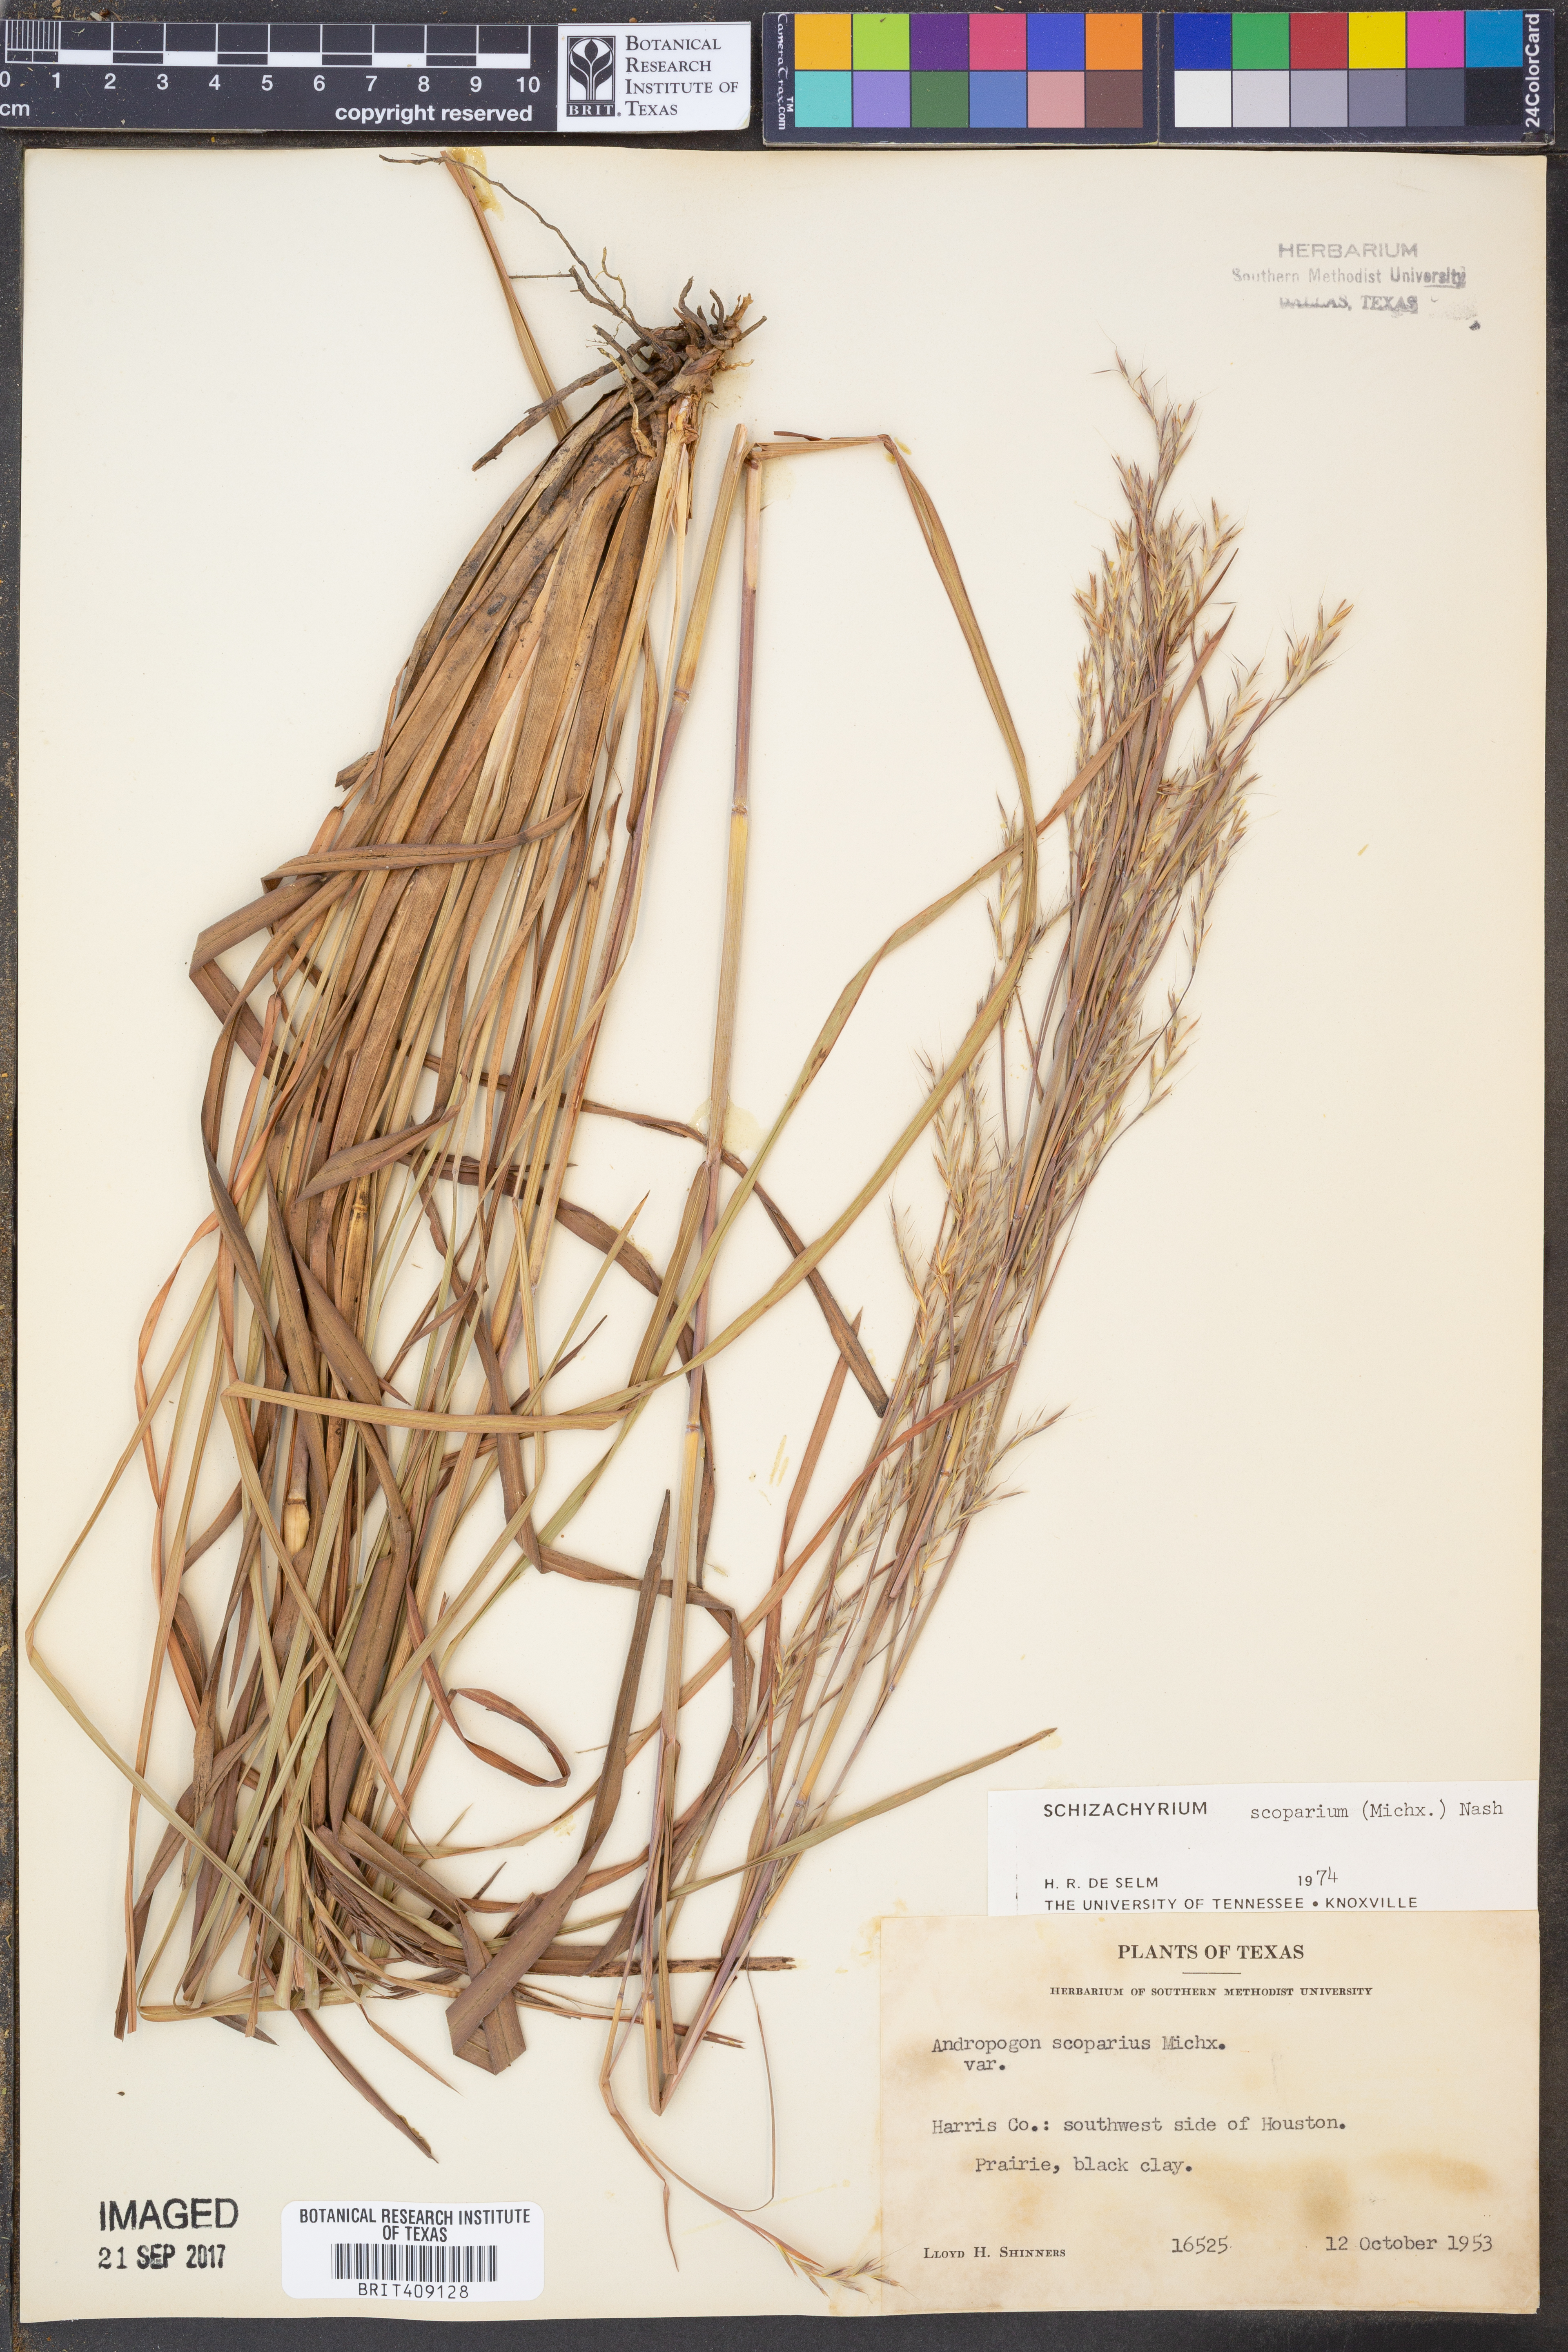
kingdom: Plantae
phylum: Tracheophyta
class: Liliopsida
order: Poales
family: Poaceae
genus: Schizachyrium
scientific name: Schizachyrium scoparium
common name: Little bluestem
